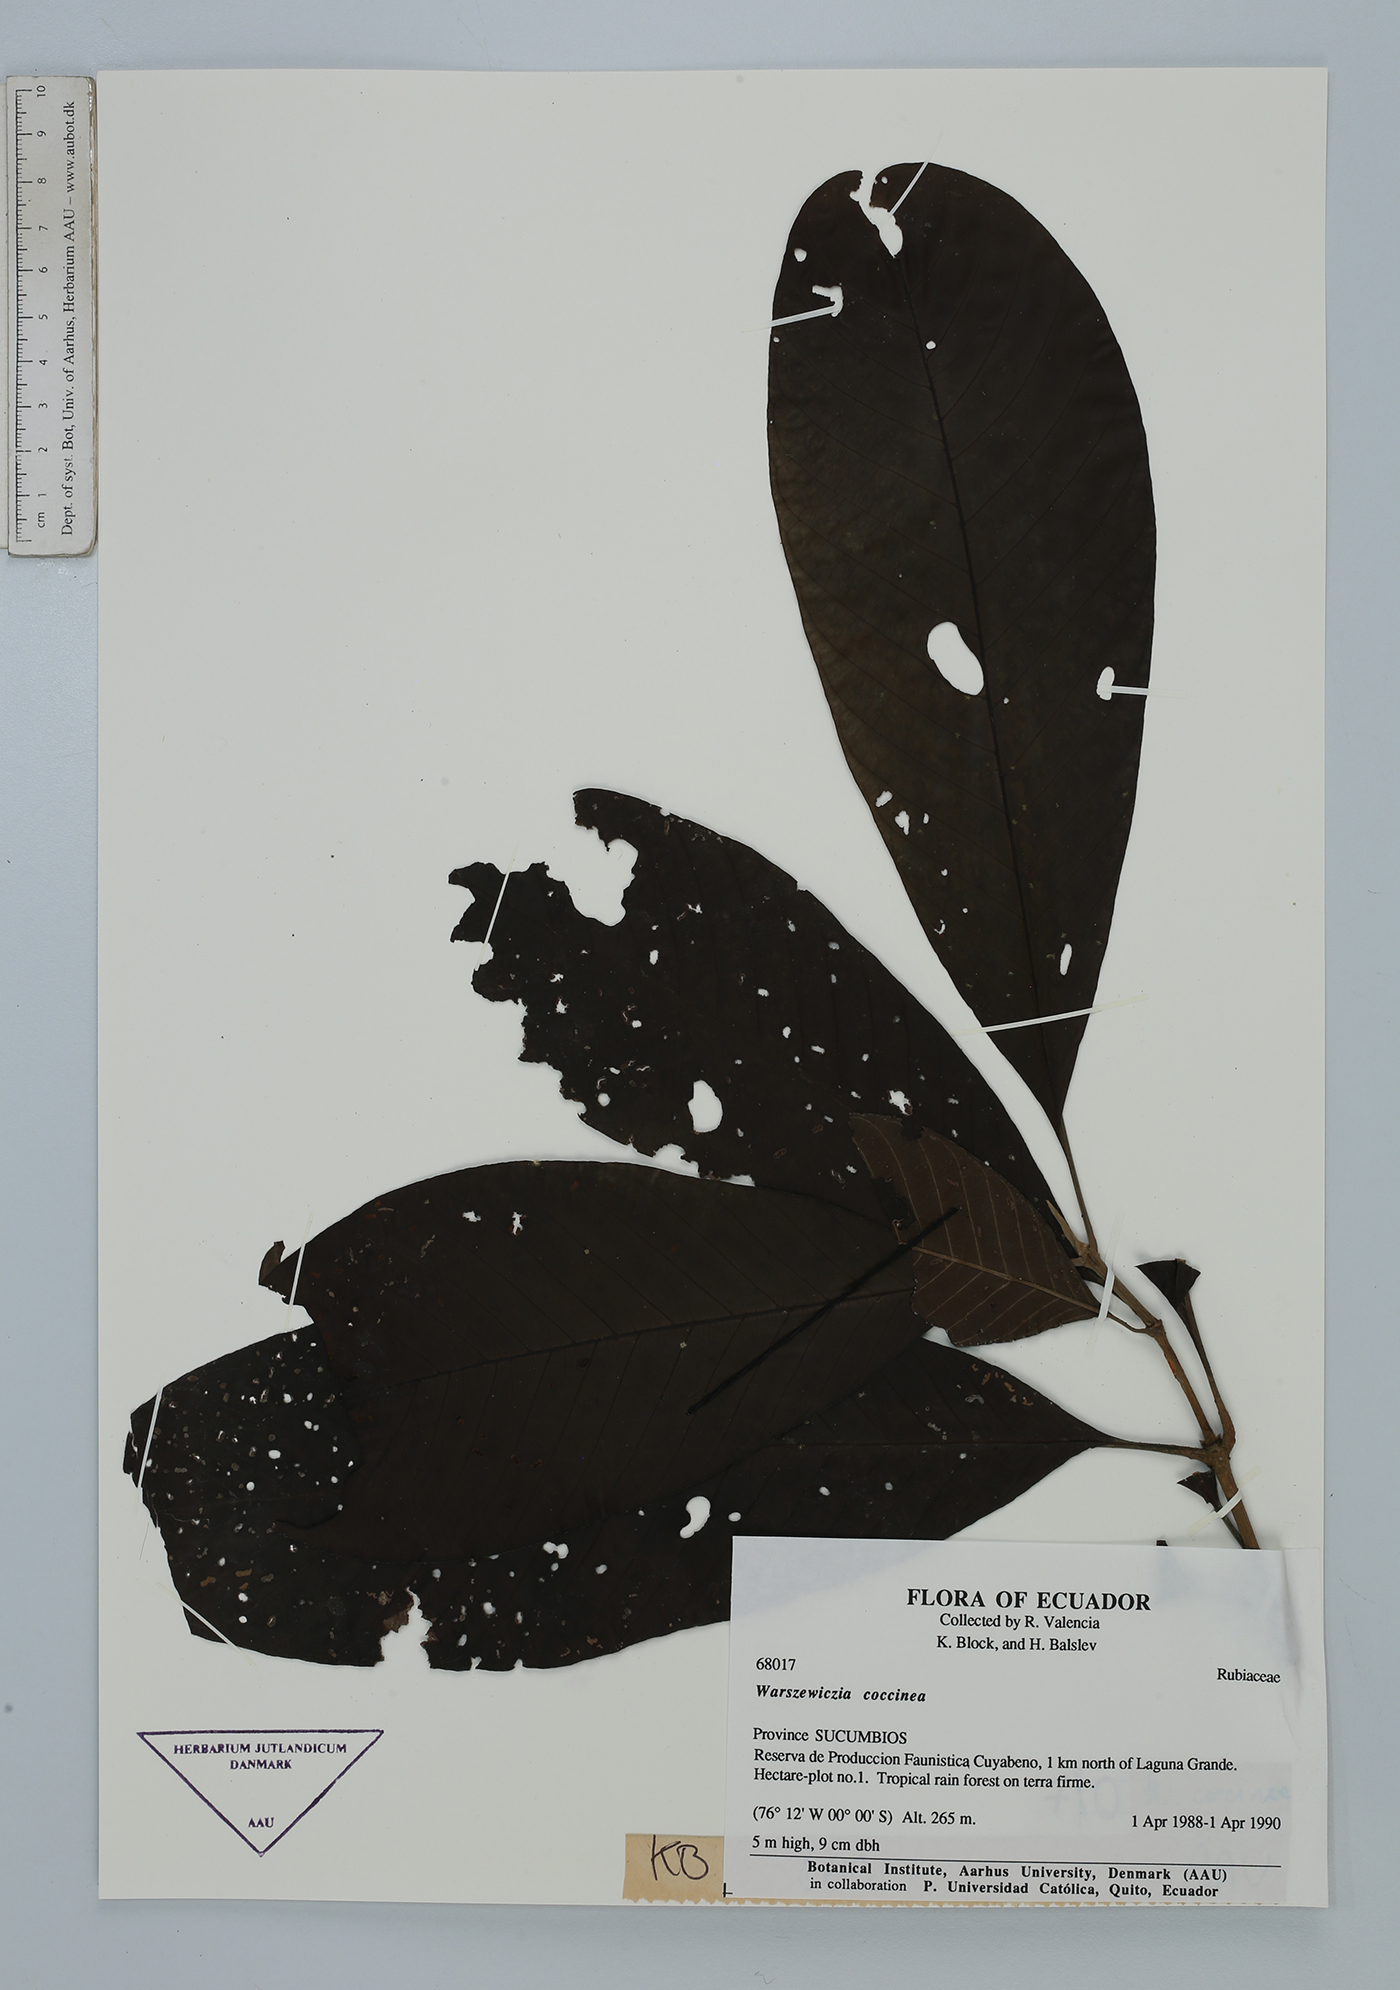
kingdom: Plantae
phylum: Tracheophyta
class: Magnoliopsida
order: Gentianales
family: Rubiaceae
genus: Warszewiczia
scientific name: Warszewiczia coccinea
